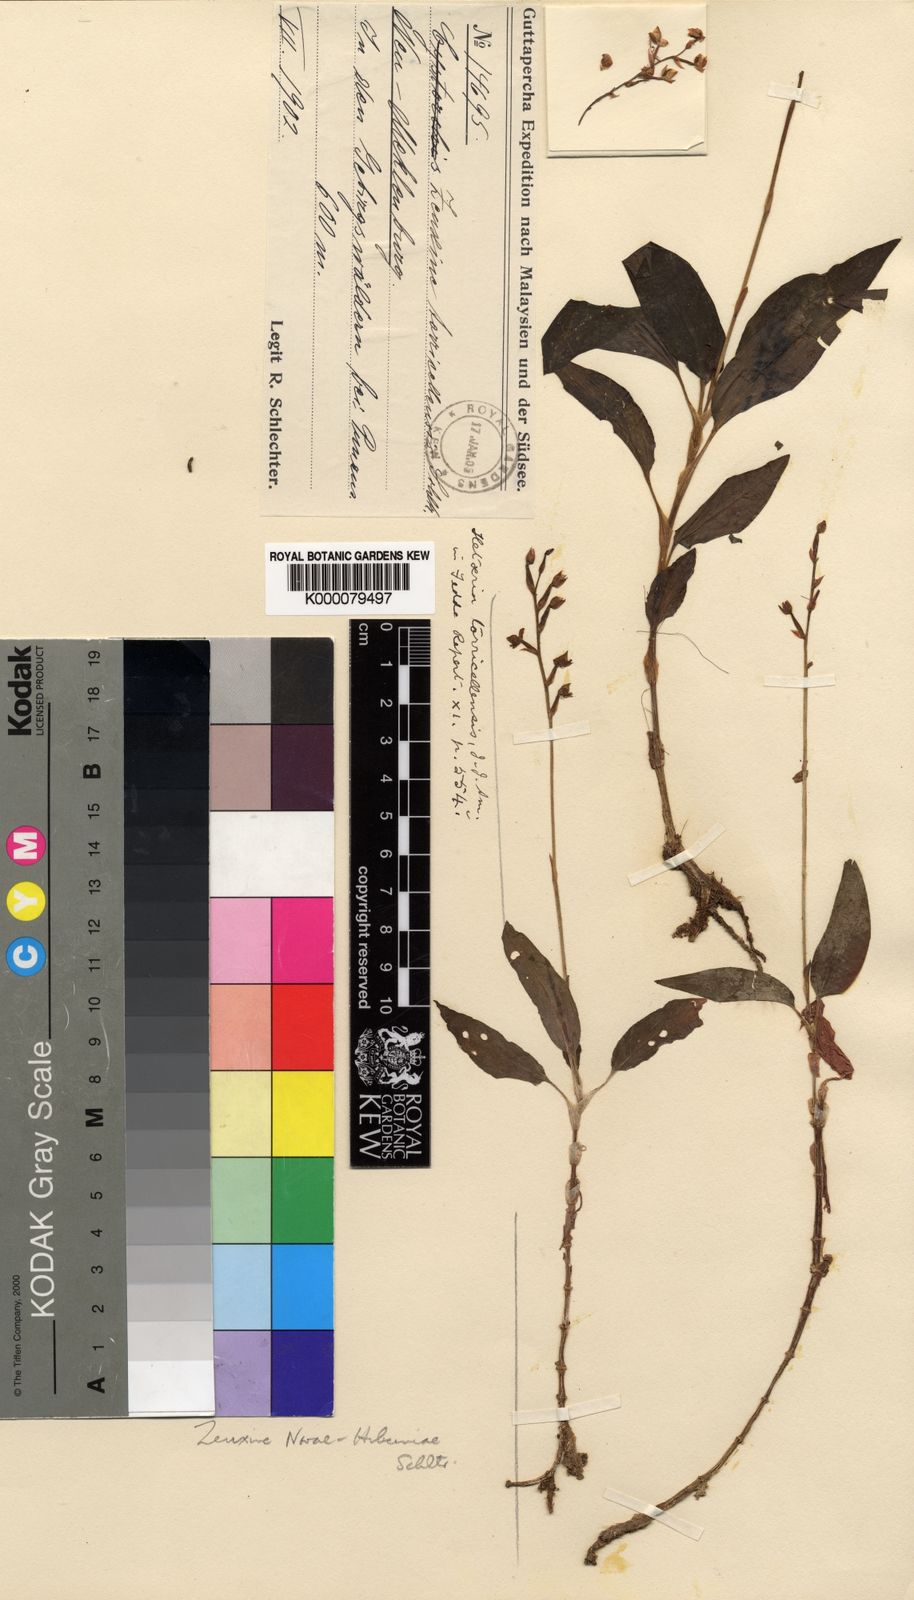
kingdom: Plantae
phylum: Tracheophyta
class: Liliopsida
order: Asparagales
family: Orchidaceae
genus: Rhomboda
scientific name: Rhomboda atrorubens
